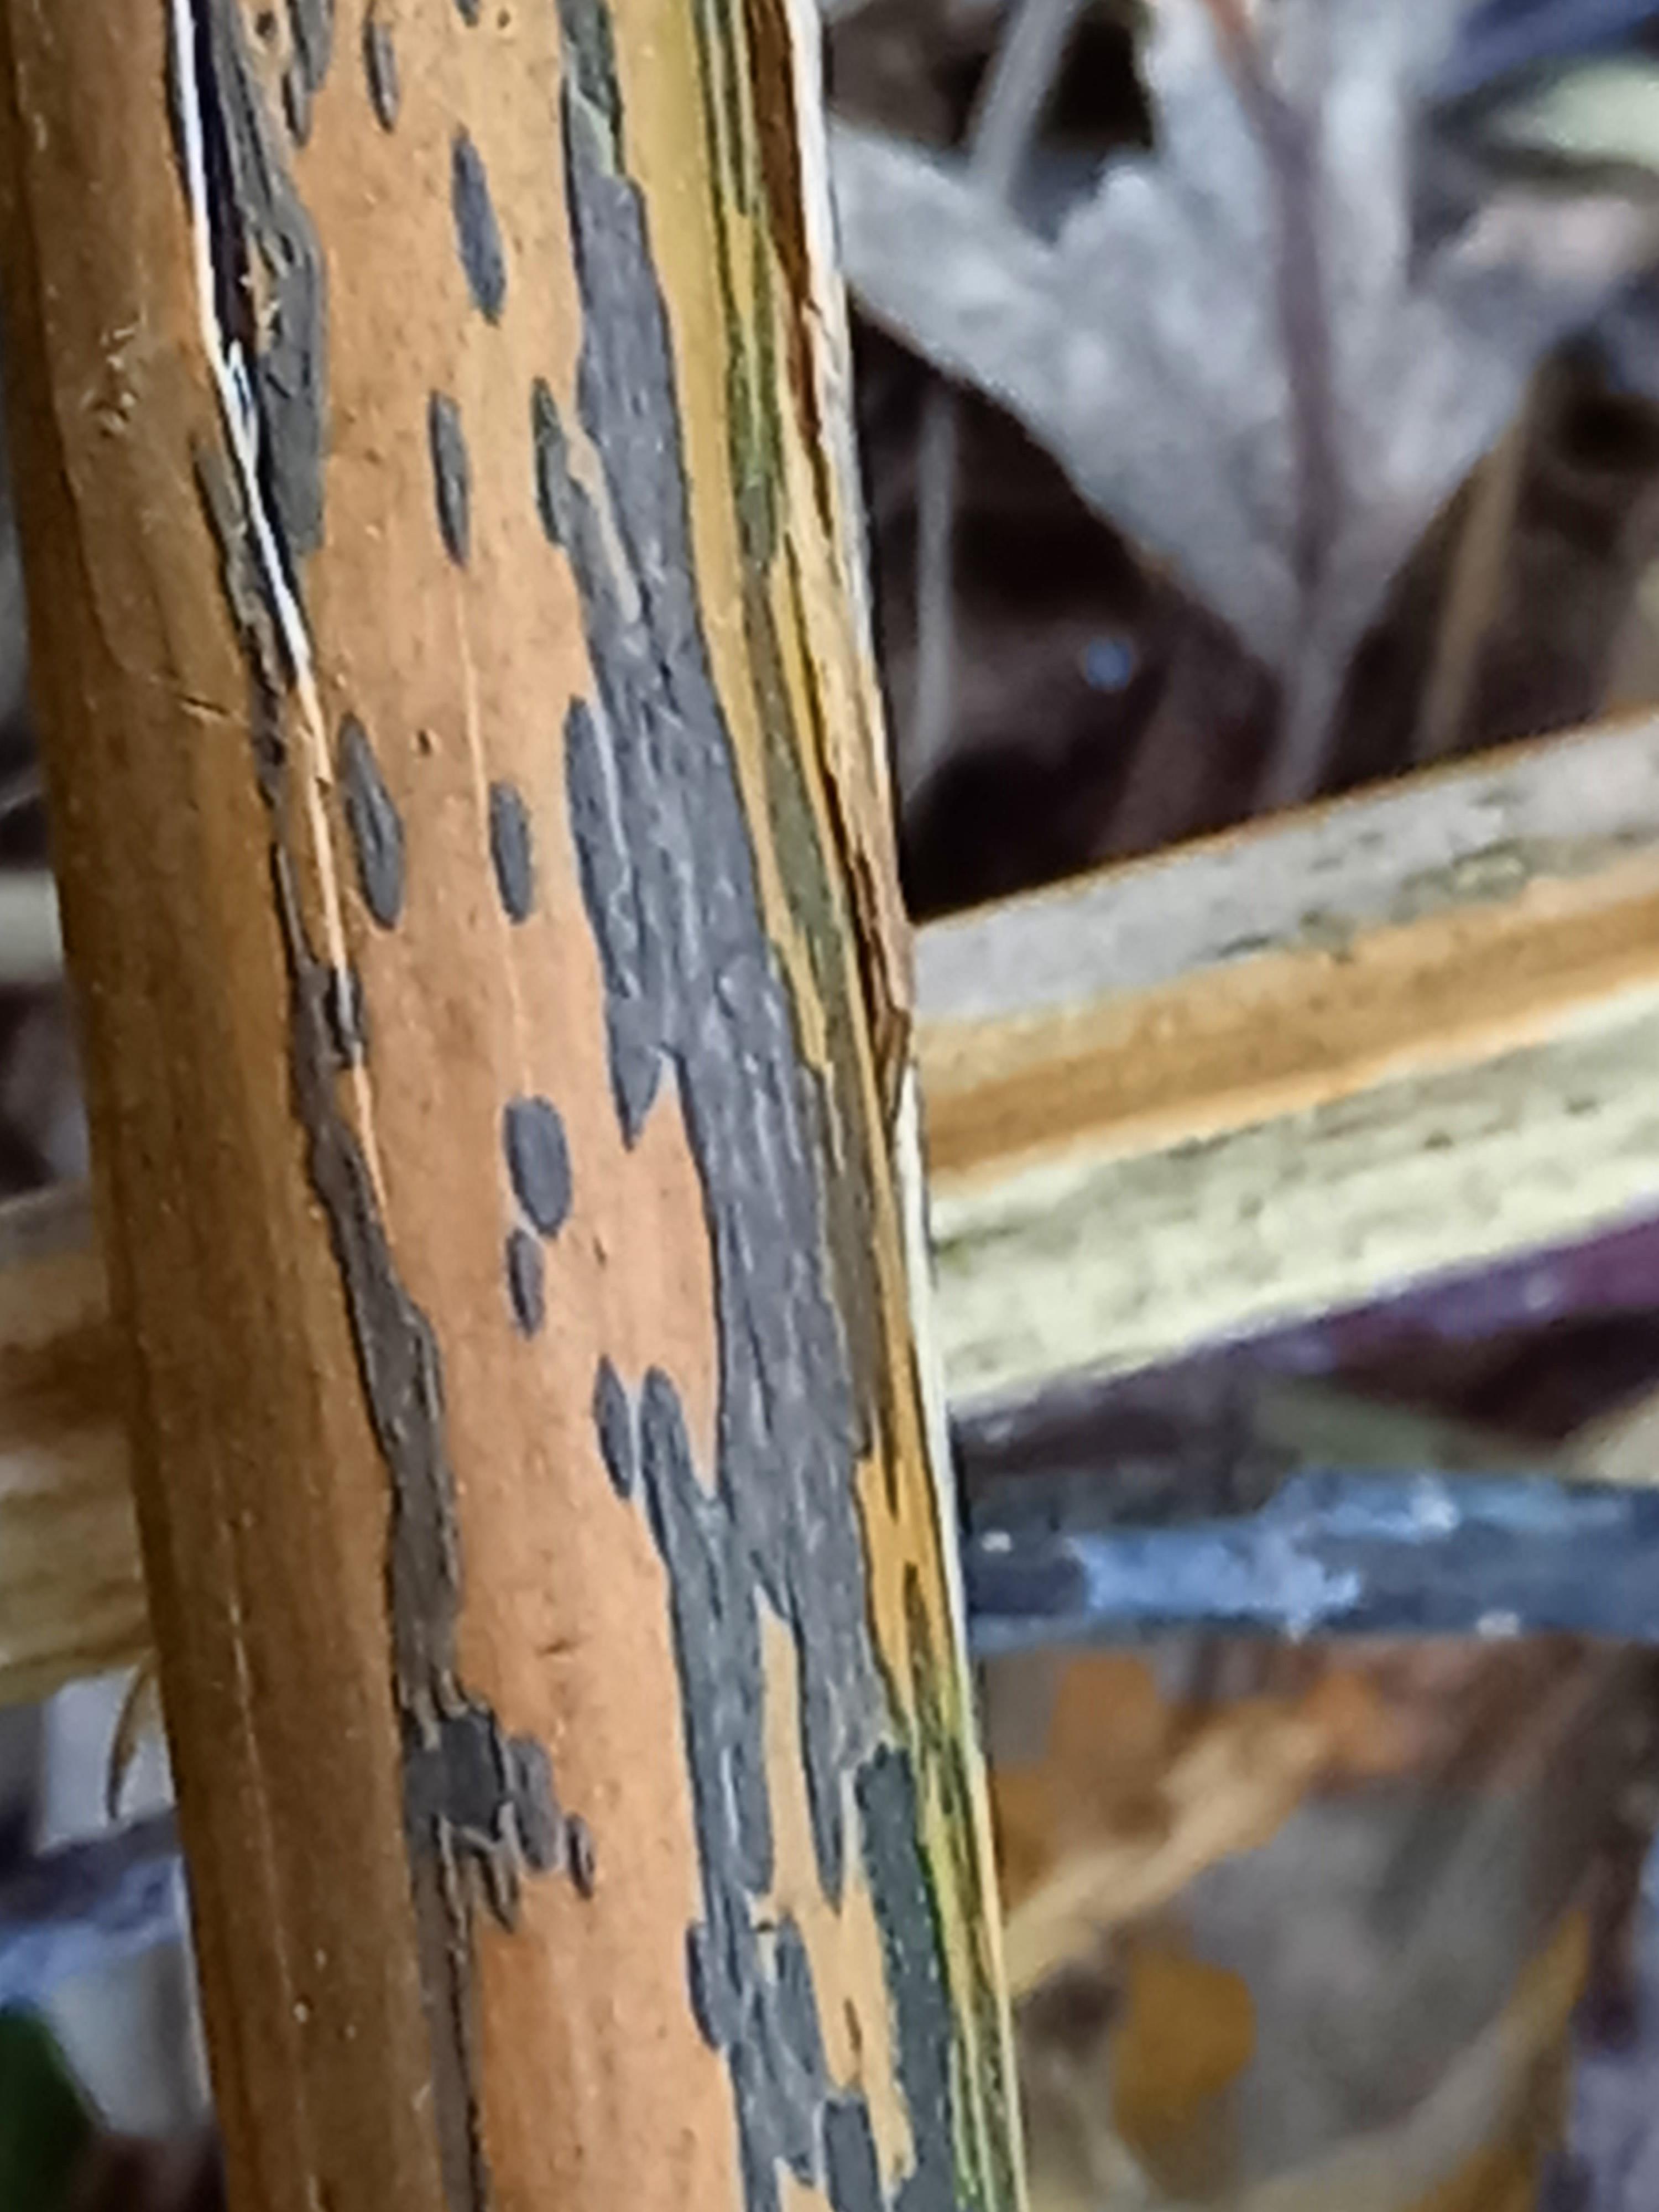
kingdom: Fungi
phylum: Ascomycota
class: Dothideomycetes
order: Pleosporales
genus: Rhopographus
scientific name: Rhopographus filicinus
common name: Bracken map
